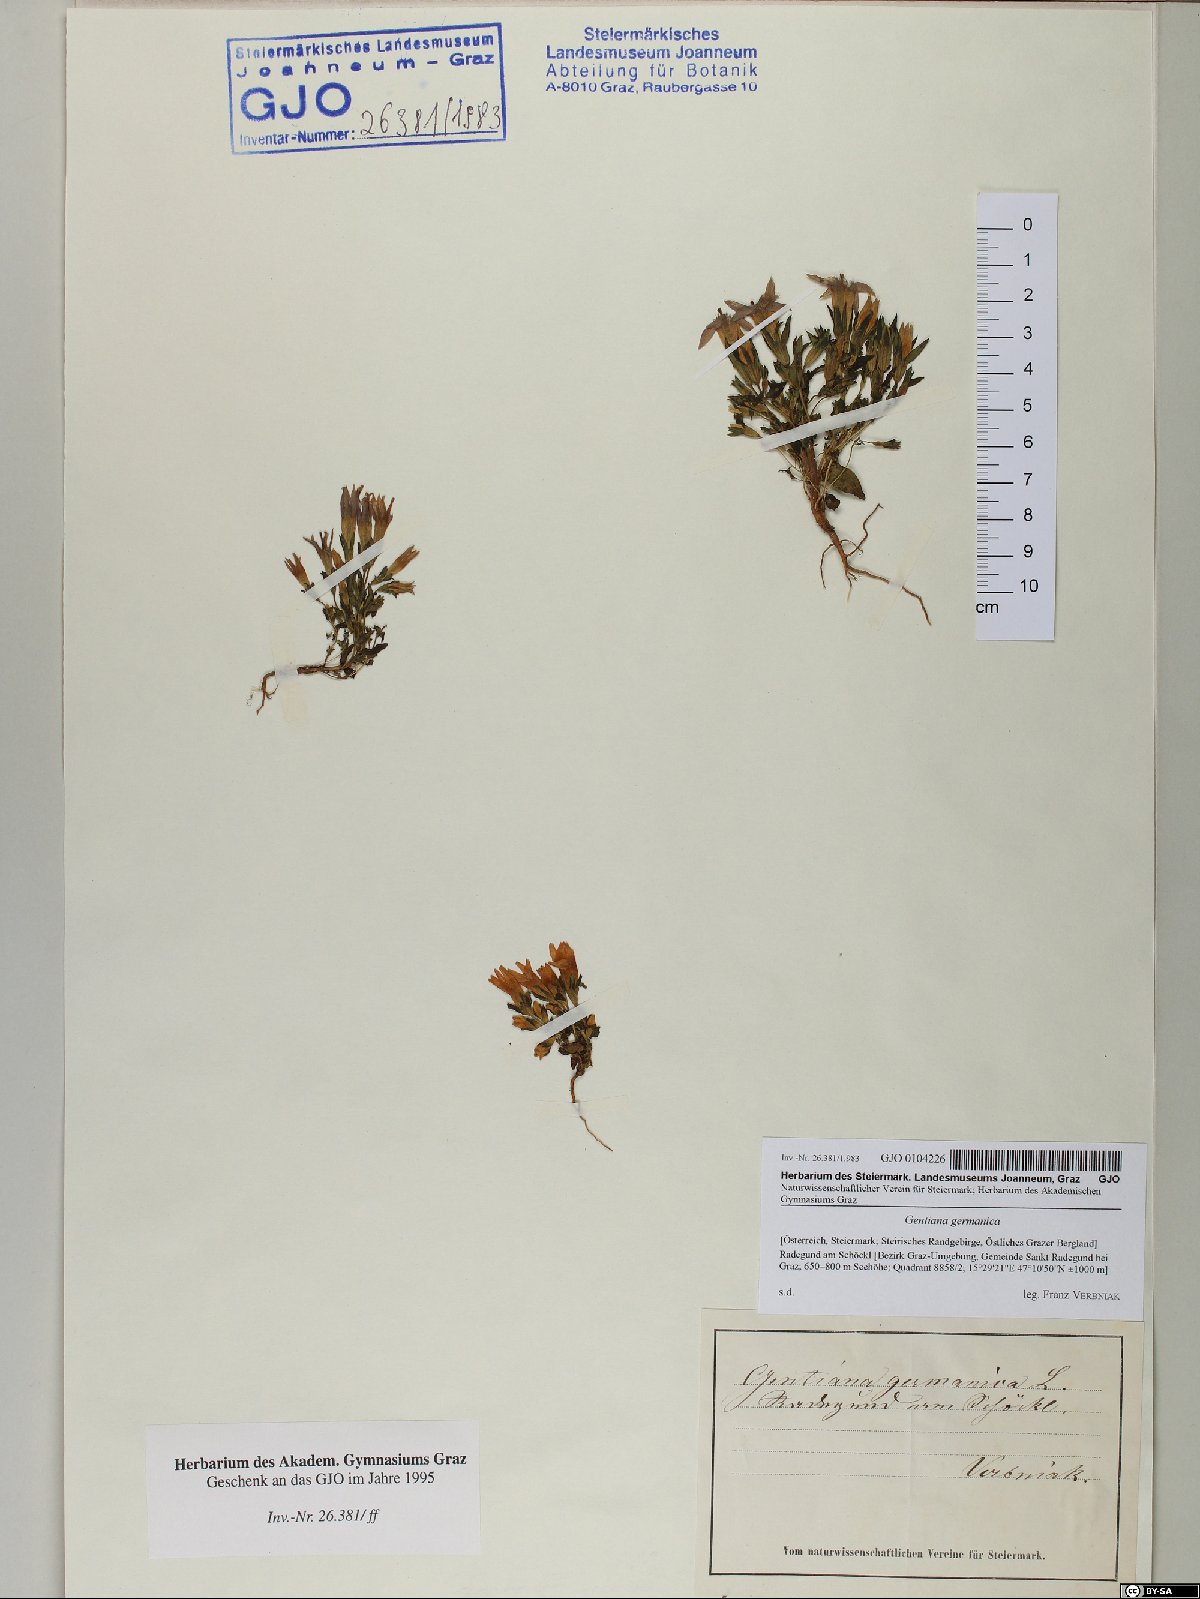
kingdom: Plantae
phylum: Tracheophyta
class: Magnoliopsida
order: Gentianales
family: Gentianaceae
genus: Gentianella
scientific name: Gentianella germanica
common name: Chiltern-gentian
